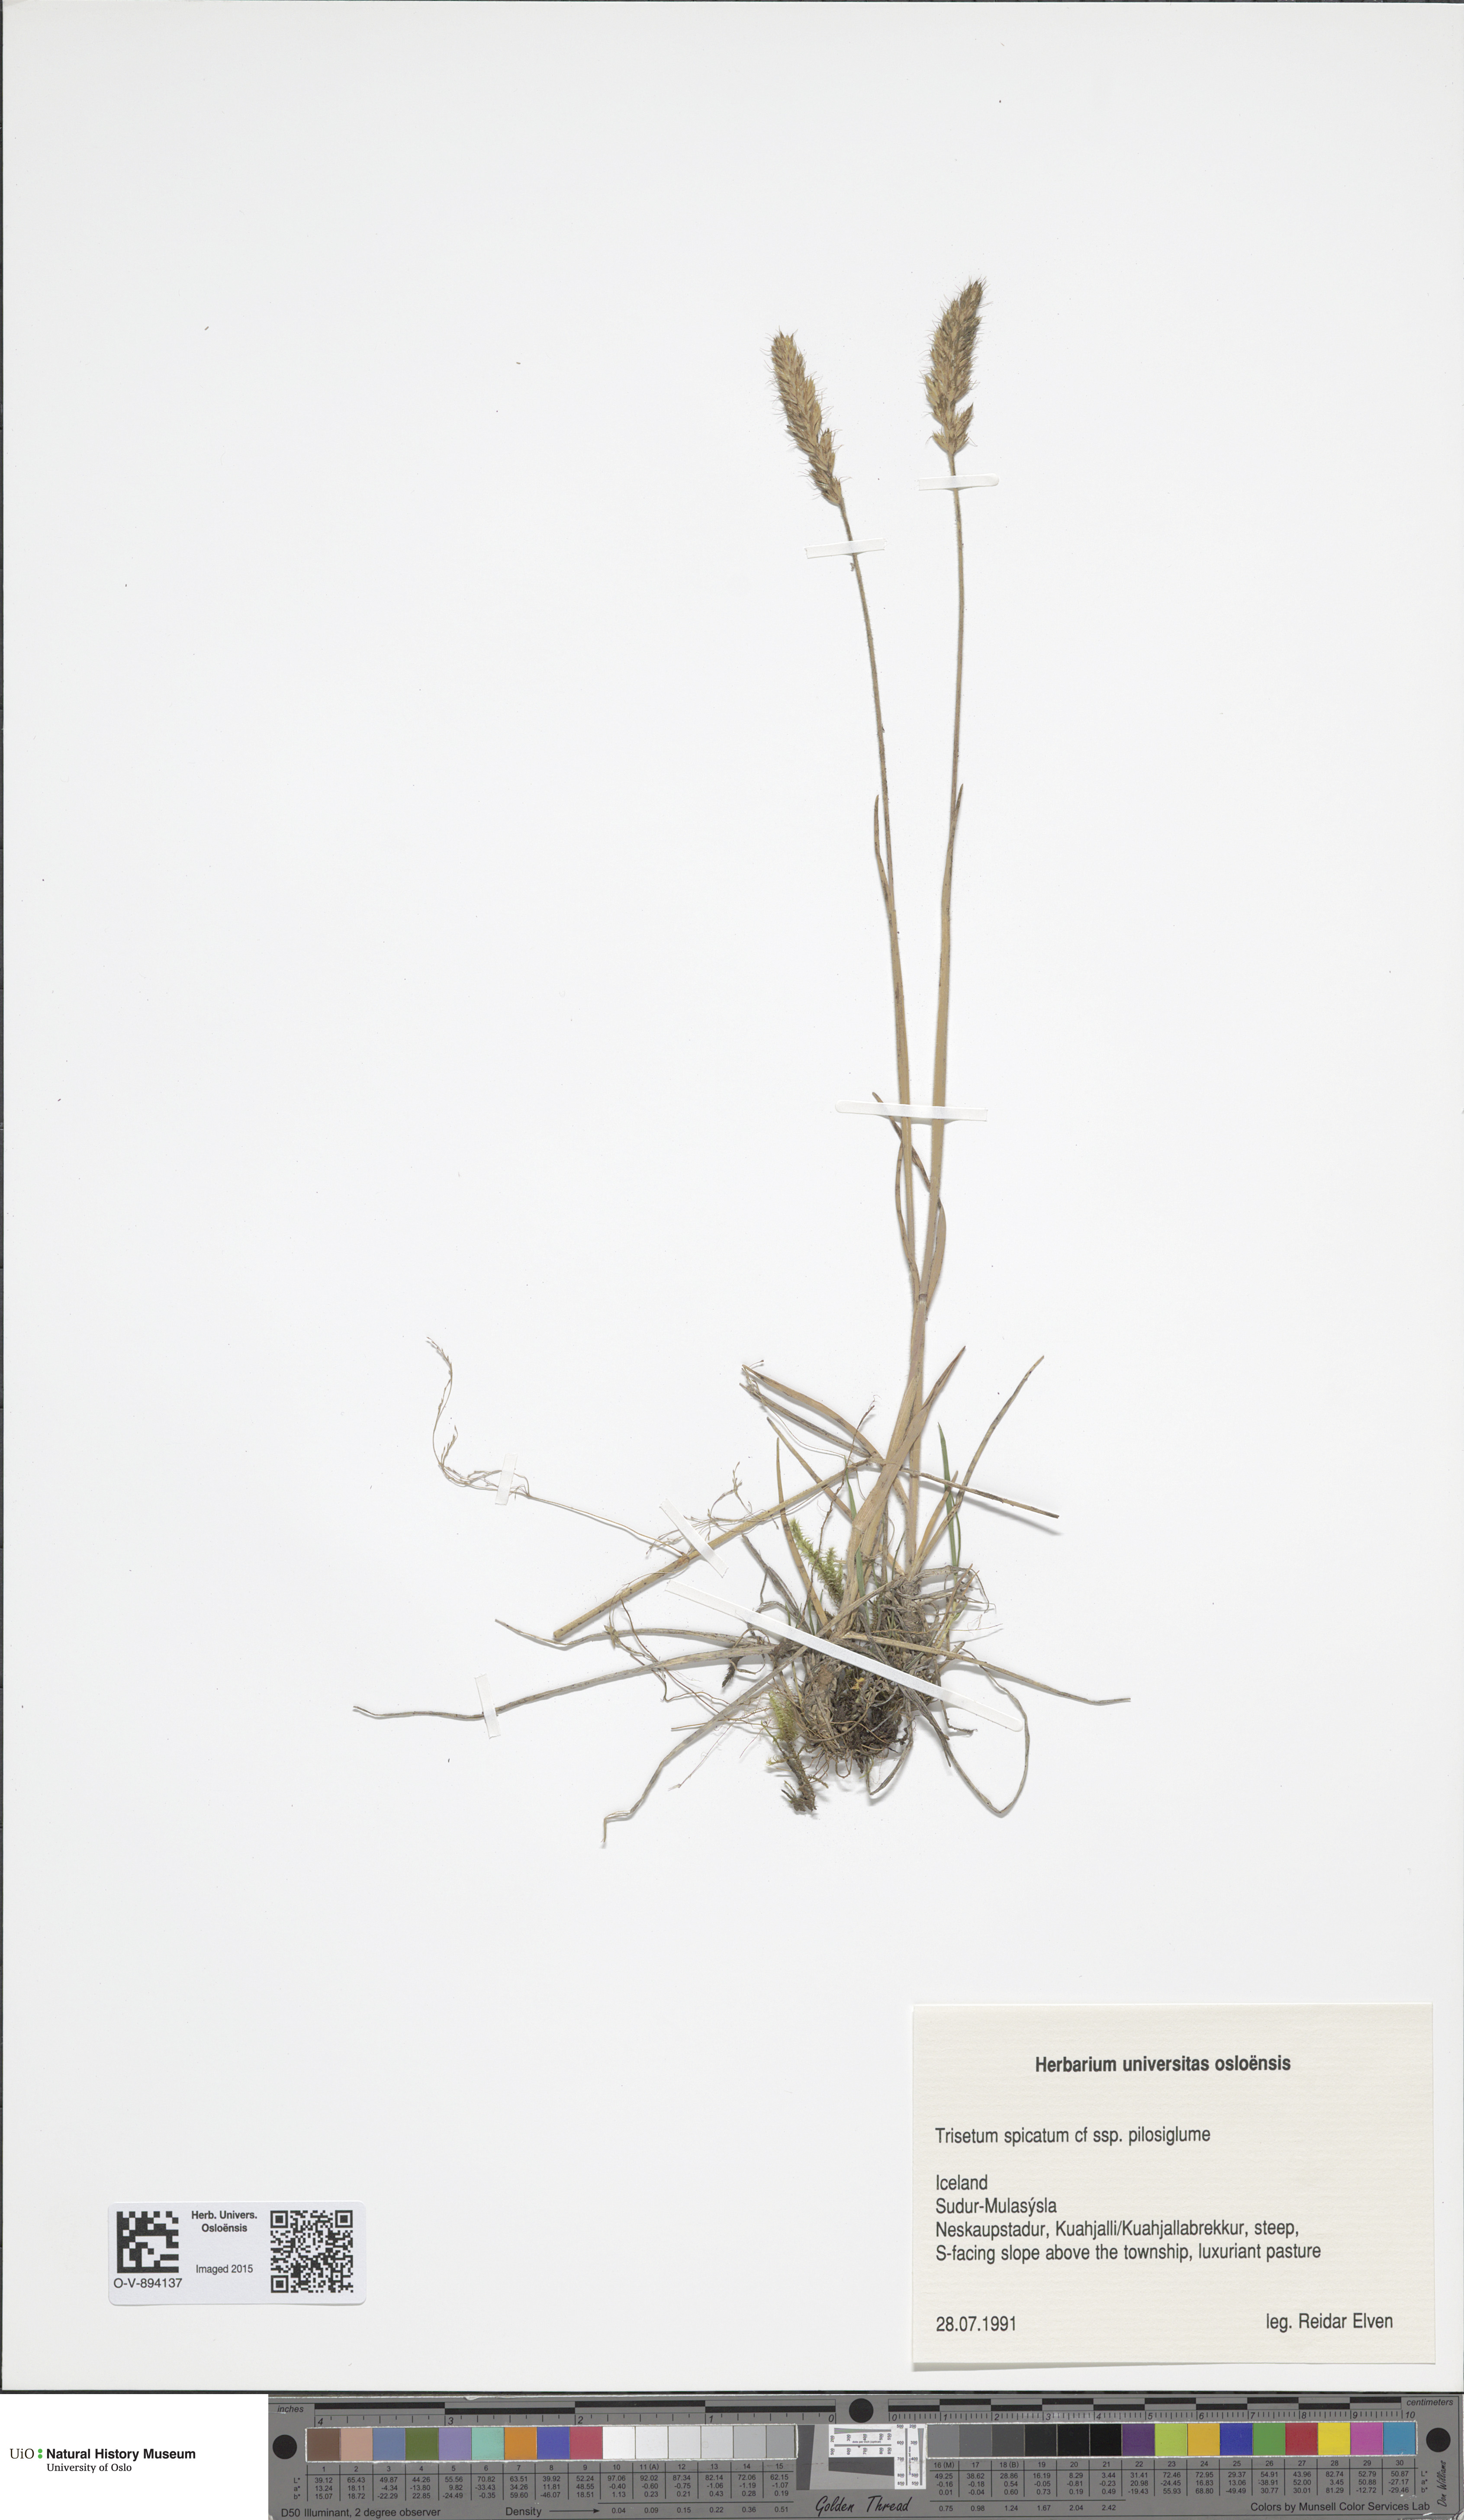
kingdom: Plantae
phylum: Tracheophyta
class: Liliopsida
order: Poales
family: Poaceae
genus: Koeleria
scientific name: Koeleria spicata
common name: Mountain trisetum
